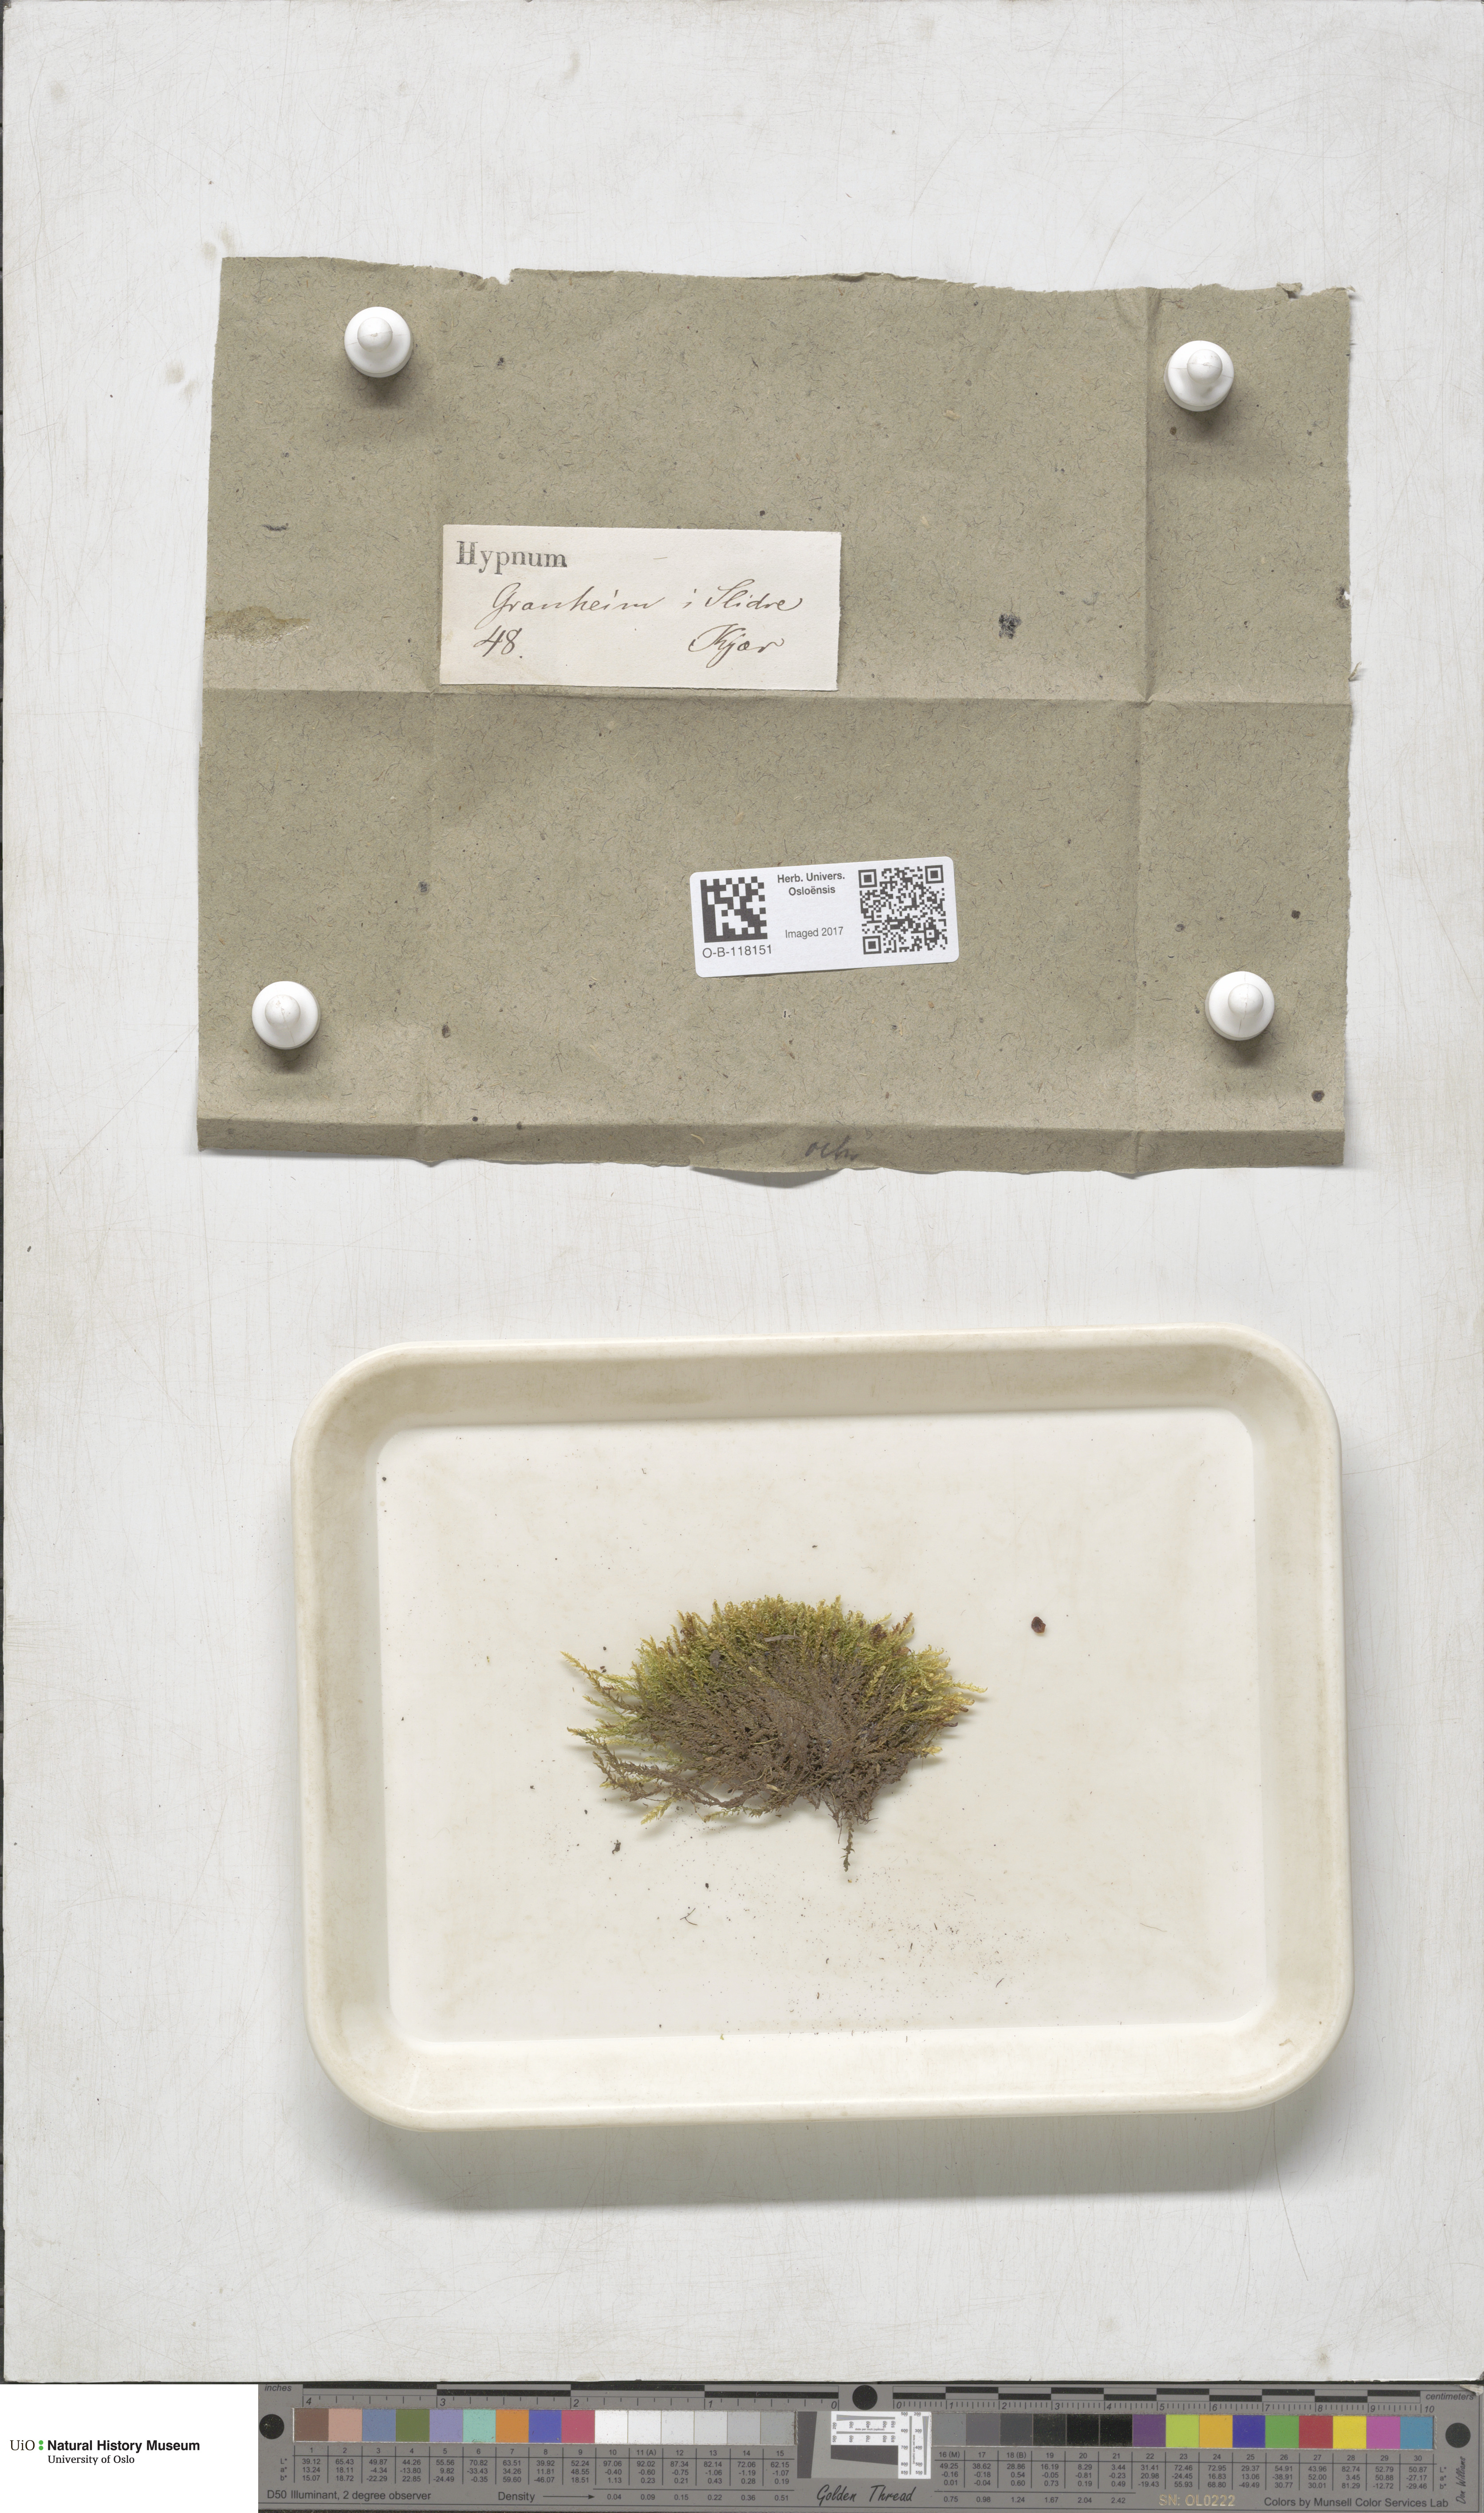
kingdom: Plantae
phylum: Bryophyta
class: Bryopsida
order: Hypnales
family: Scorpidiaceae
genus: Hygrohypnella
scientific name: Hygrohypnella ochracea
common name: Hygrohypnum moss
